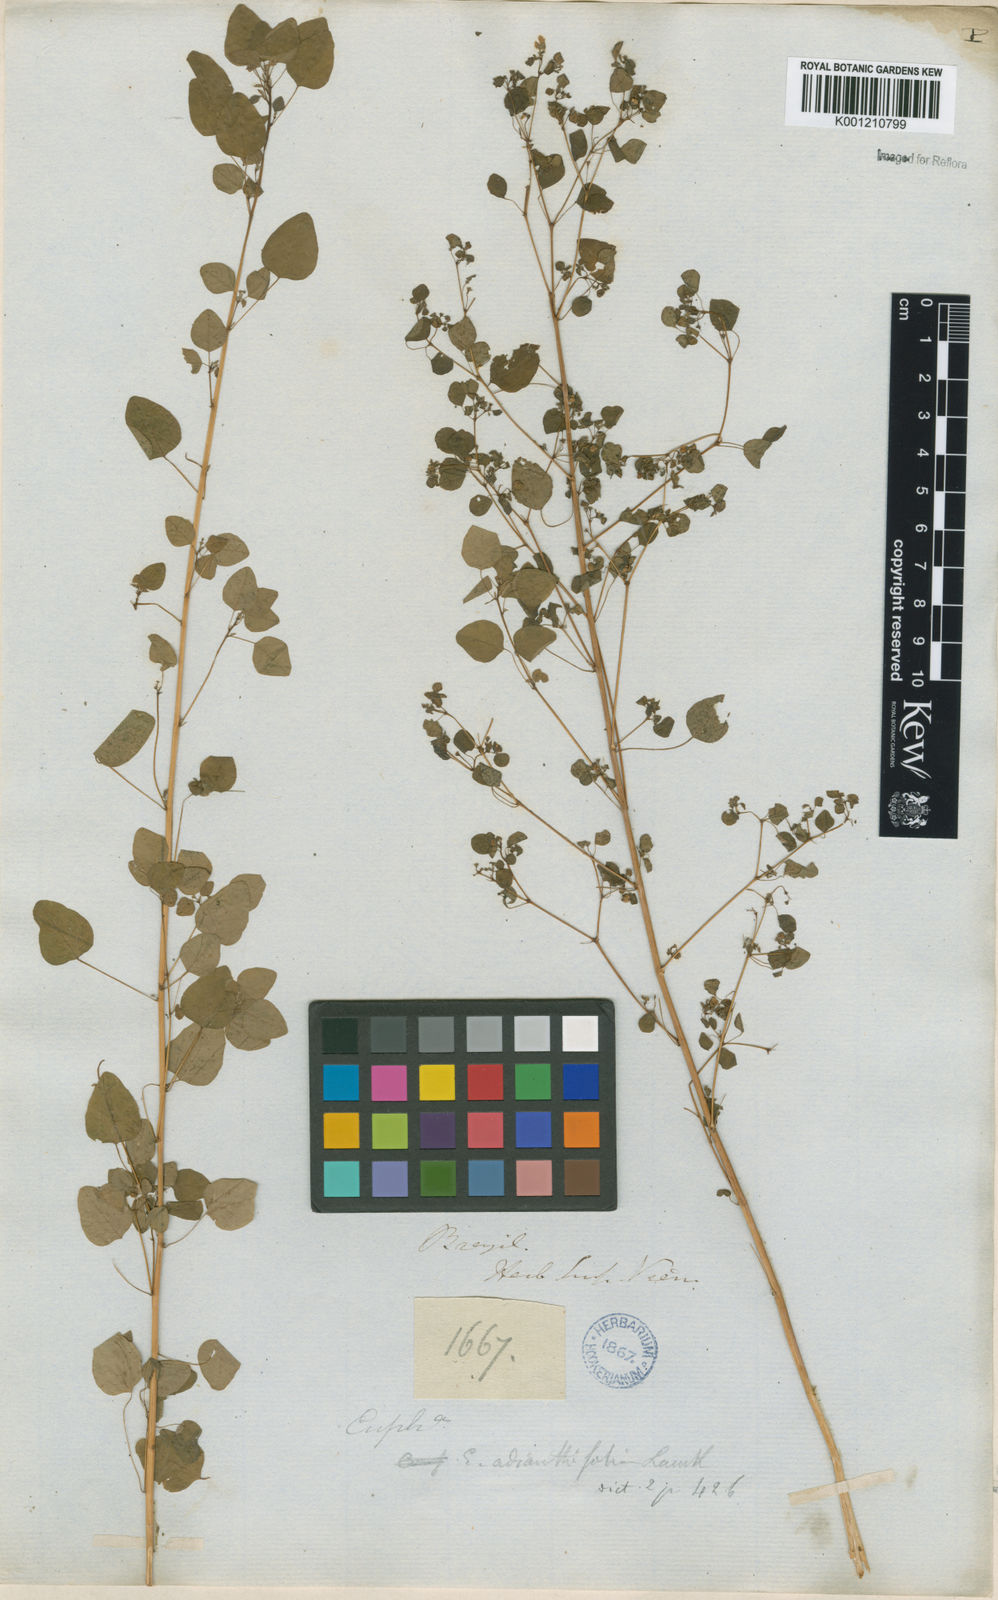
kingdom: Plantae
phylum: Tracheophyta
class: Magnoliopsida
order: Malpighiales
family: Euphorbiaceae
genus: Euphorbia
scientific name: Euphorbia sciadophila
